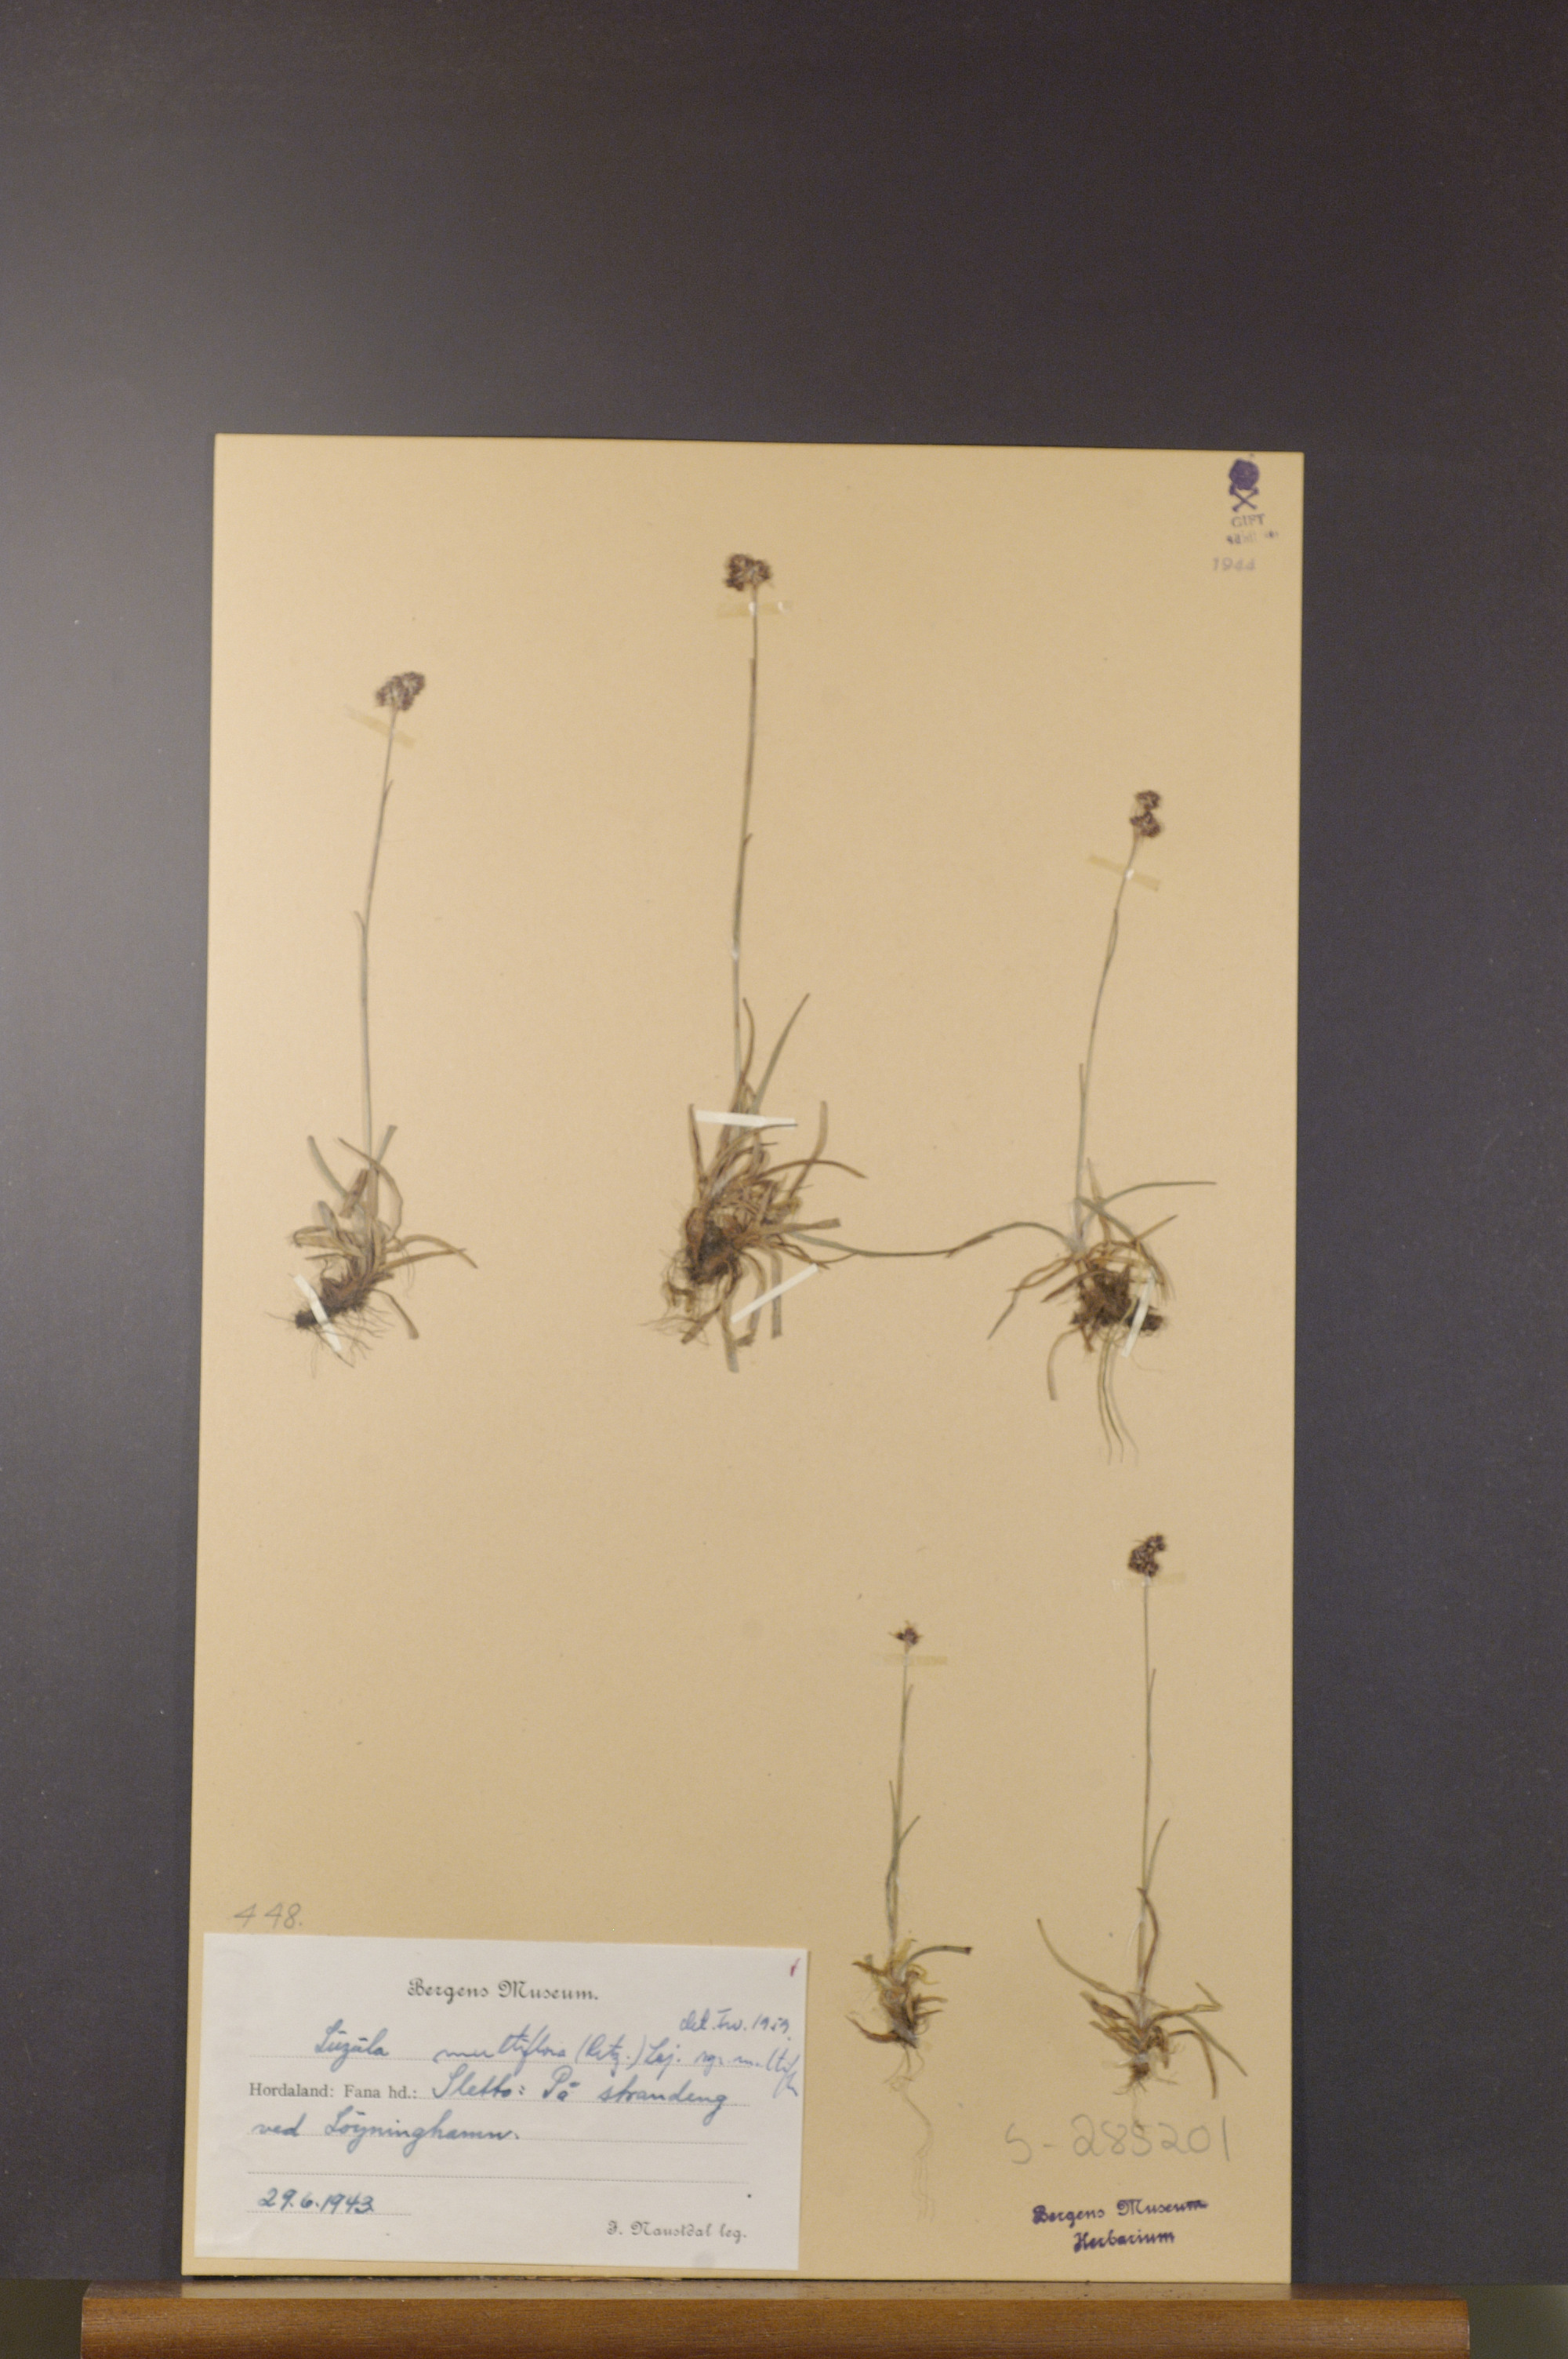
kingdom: Plantae
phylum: Tracheophyta
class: Liliopsida
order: Poales
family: Juncaceae
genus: Luzula
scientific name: Luzula multiflora
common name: Heath wood-rush
